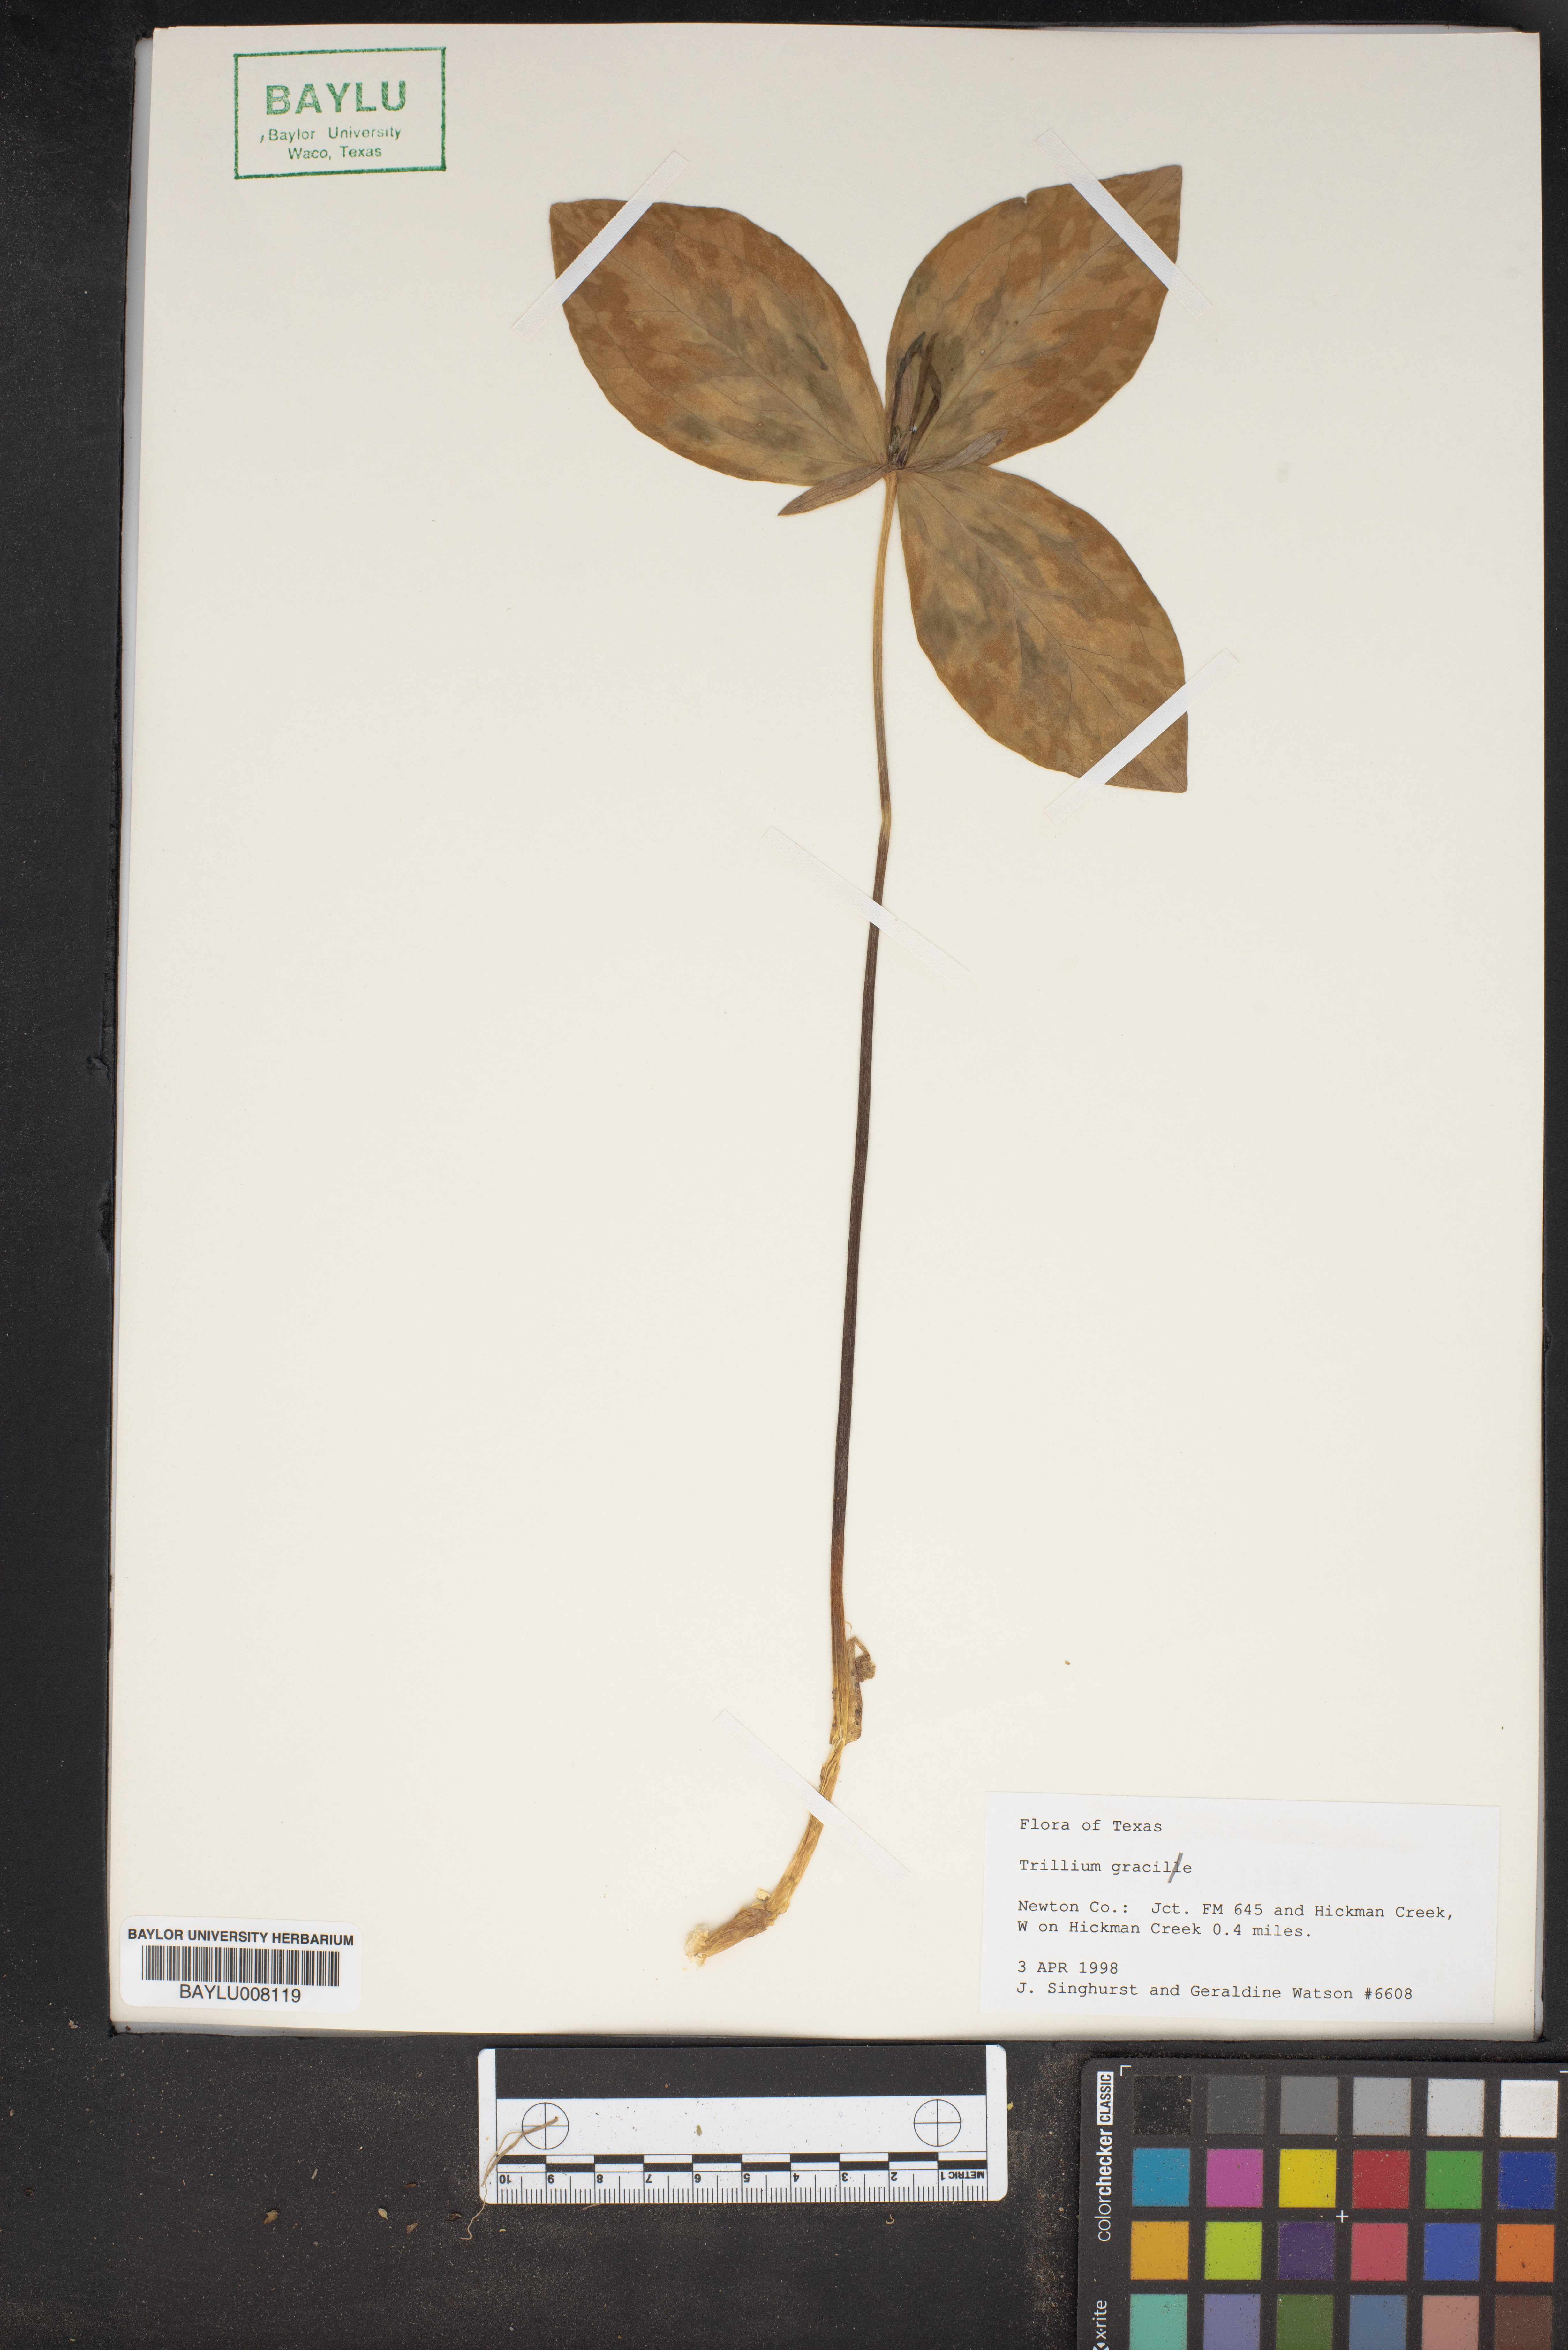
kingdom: Plantae
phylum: Tracheophyta
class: Liliopsida
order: Liliales
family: Melanthiaceae
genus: Trillium
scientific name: Trillium gracile
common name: Graceful trillium
